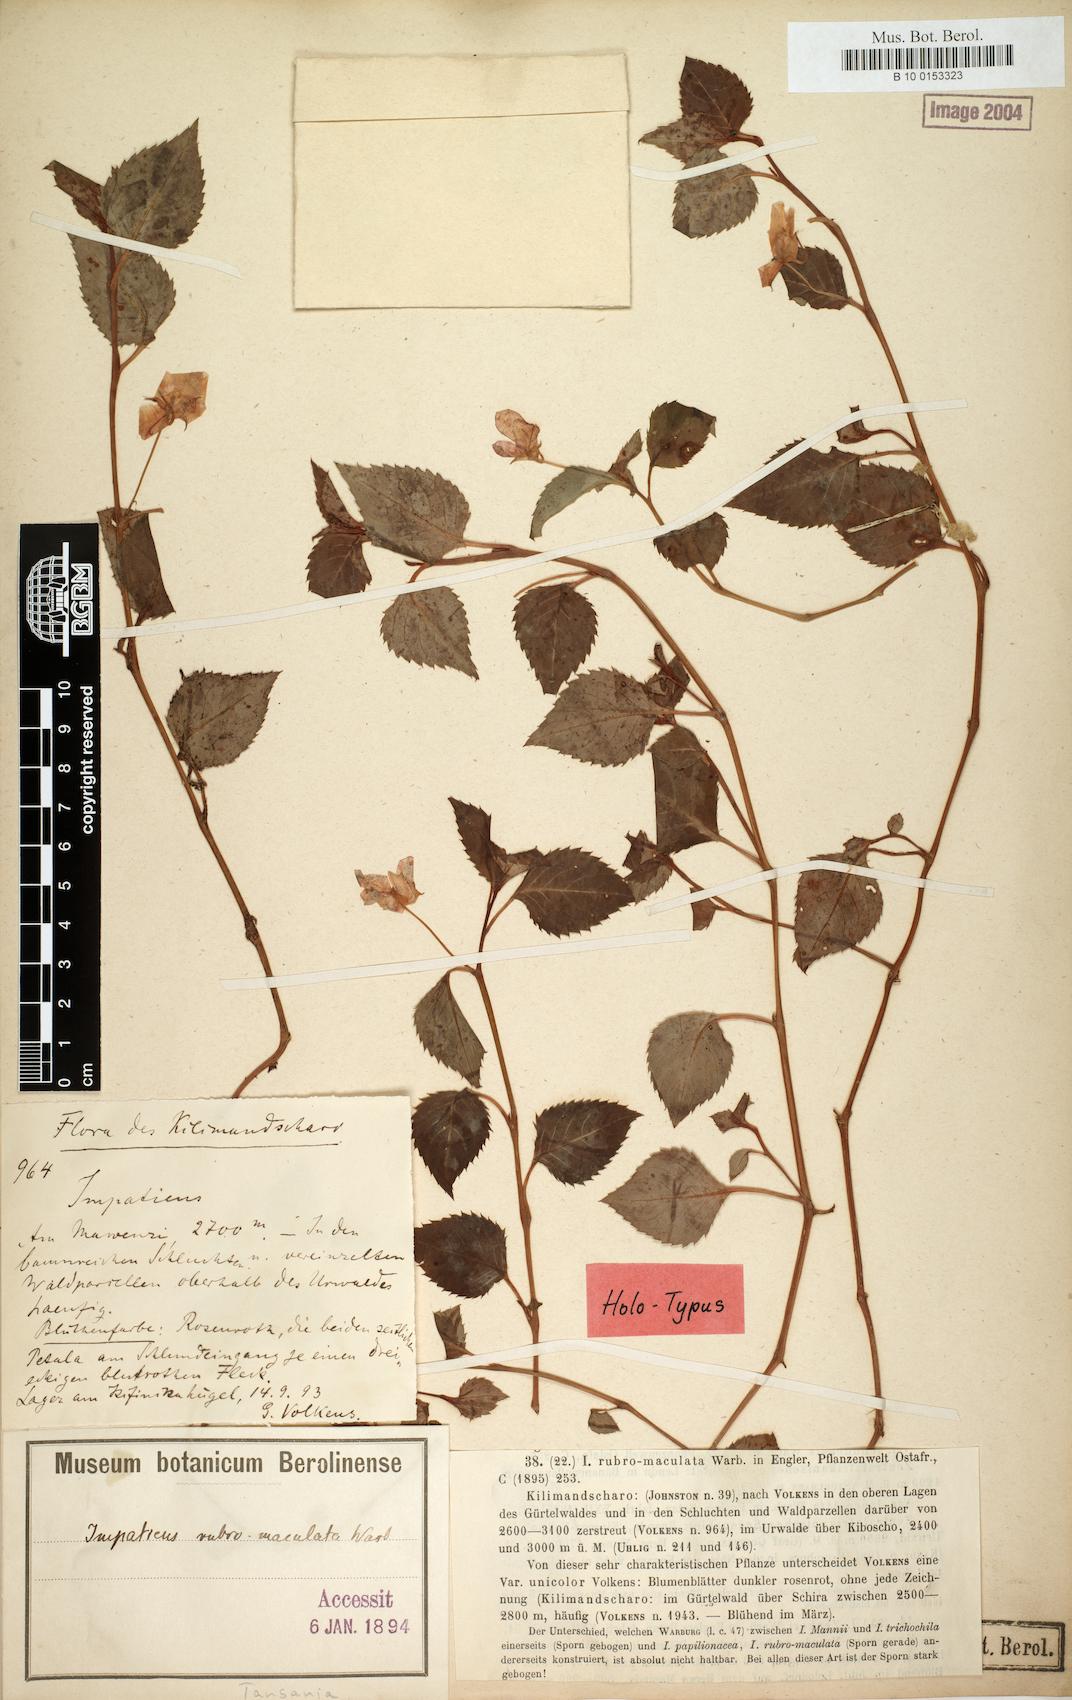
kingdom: Plantae
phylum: Tracheophyta
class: Magnoliopsida
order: Ericales
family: Balsaminaceae
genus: Impatiens
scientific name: Impatiens rubromaculata
